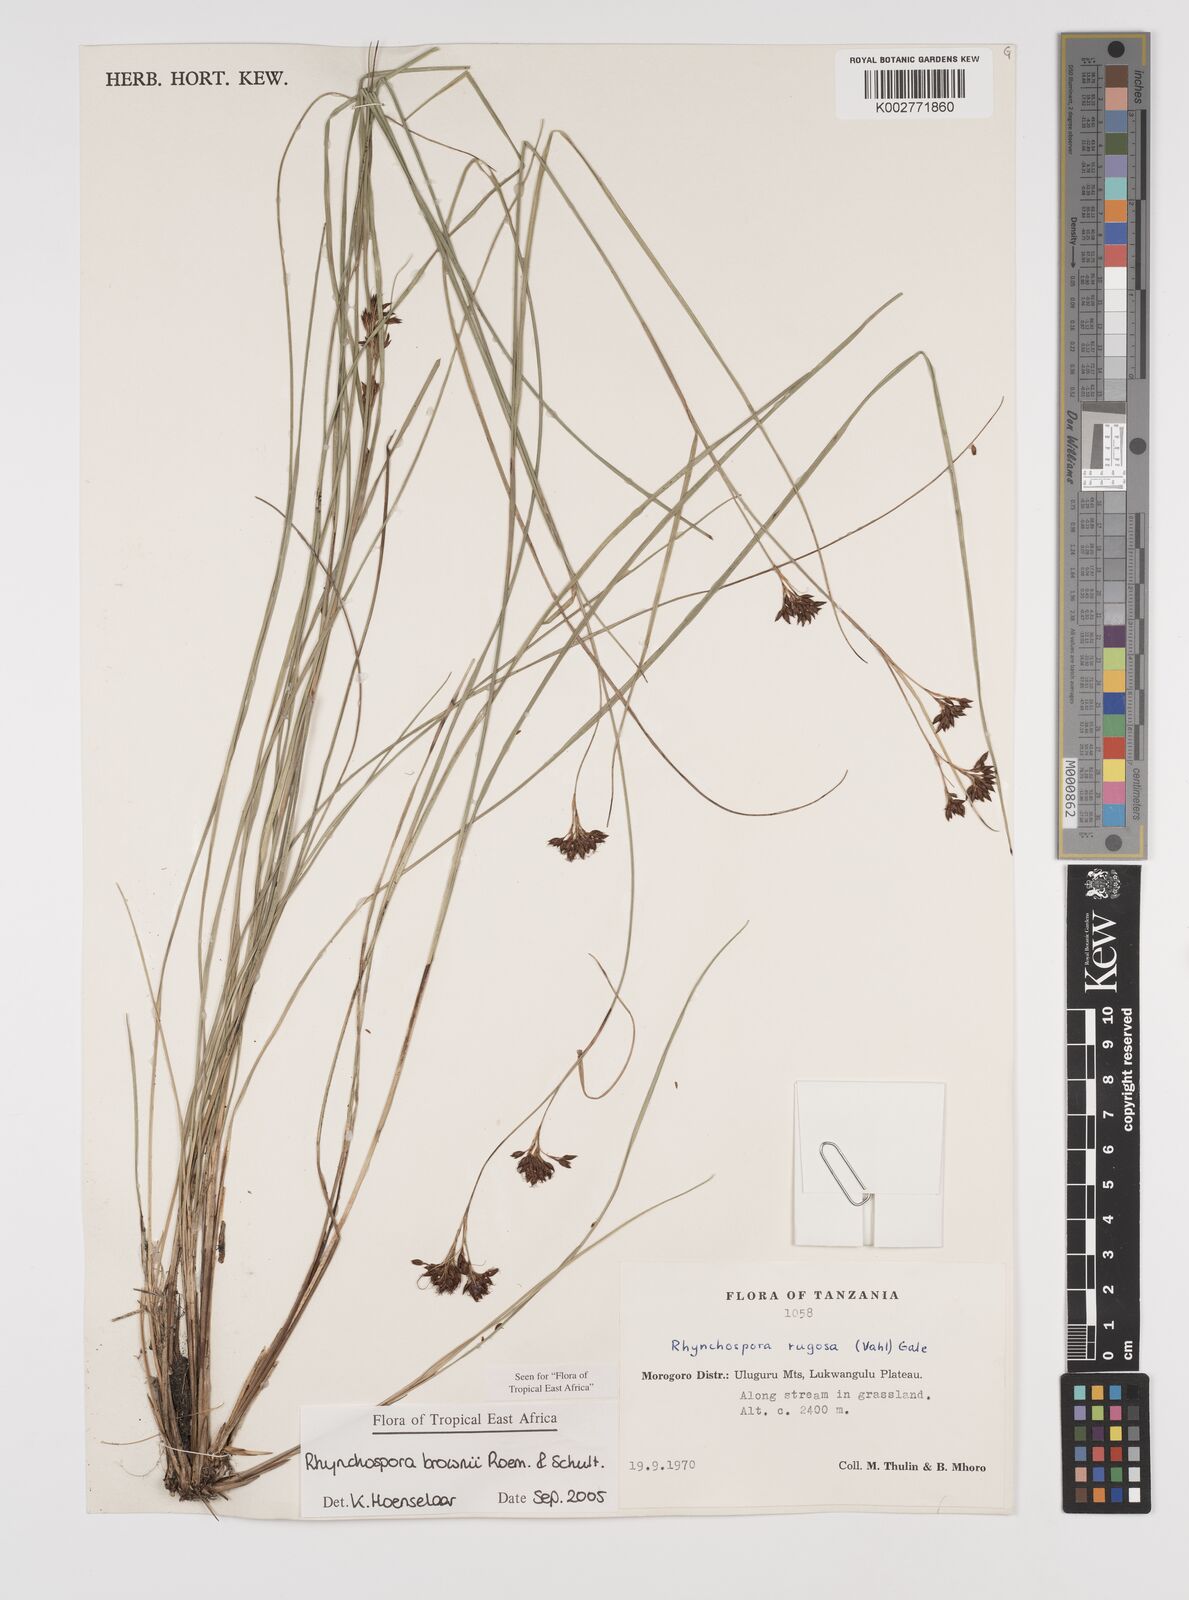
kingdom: Plantae
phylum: Tracheophyta
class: Liliopsida
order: Poales
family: Cyperaceae
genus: Rhynchospora
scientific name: Rhynchospora brownii
